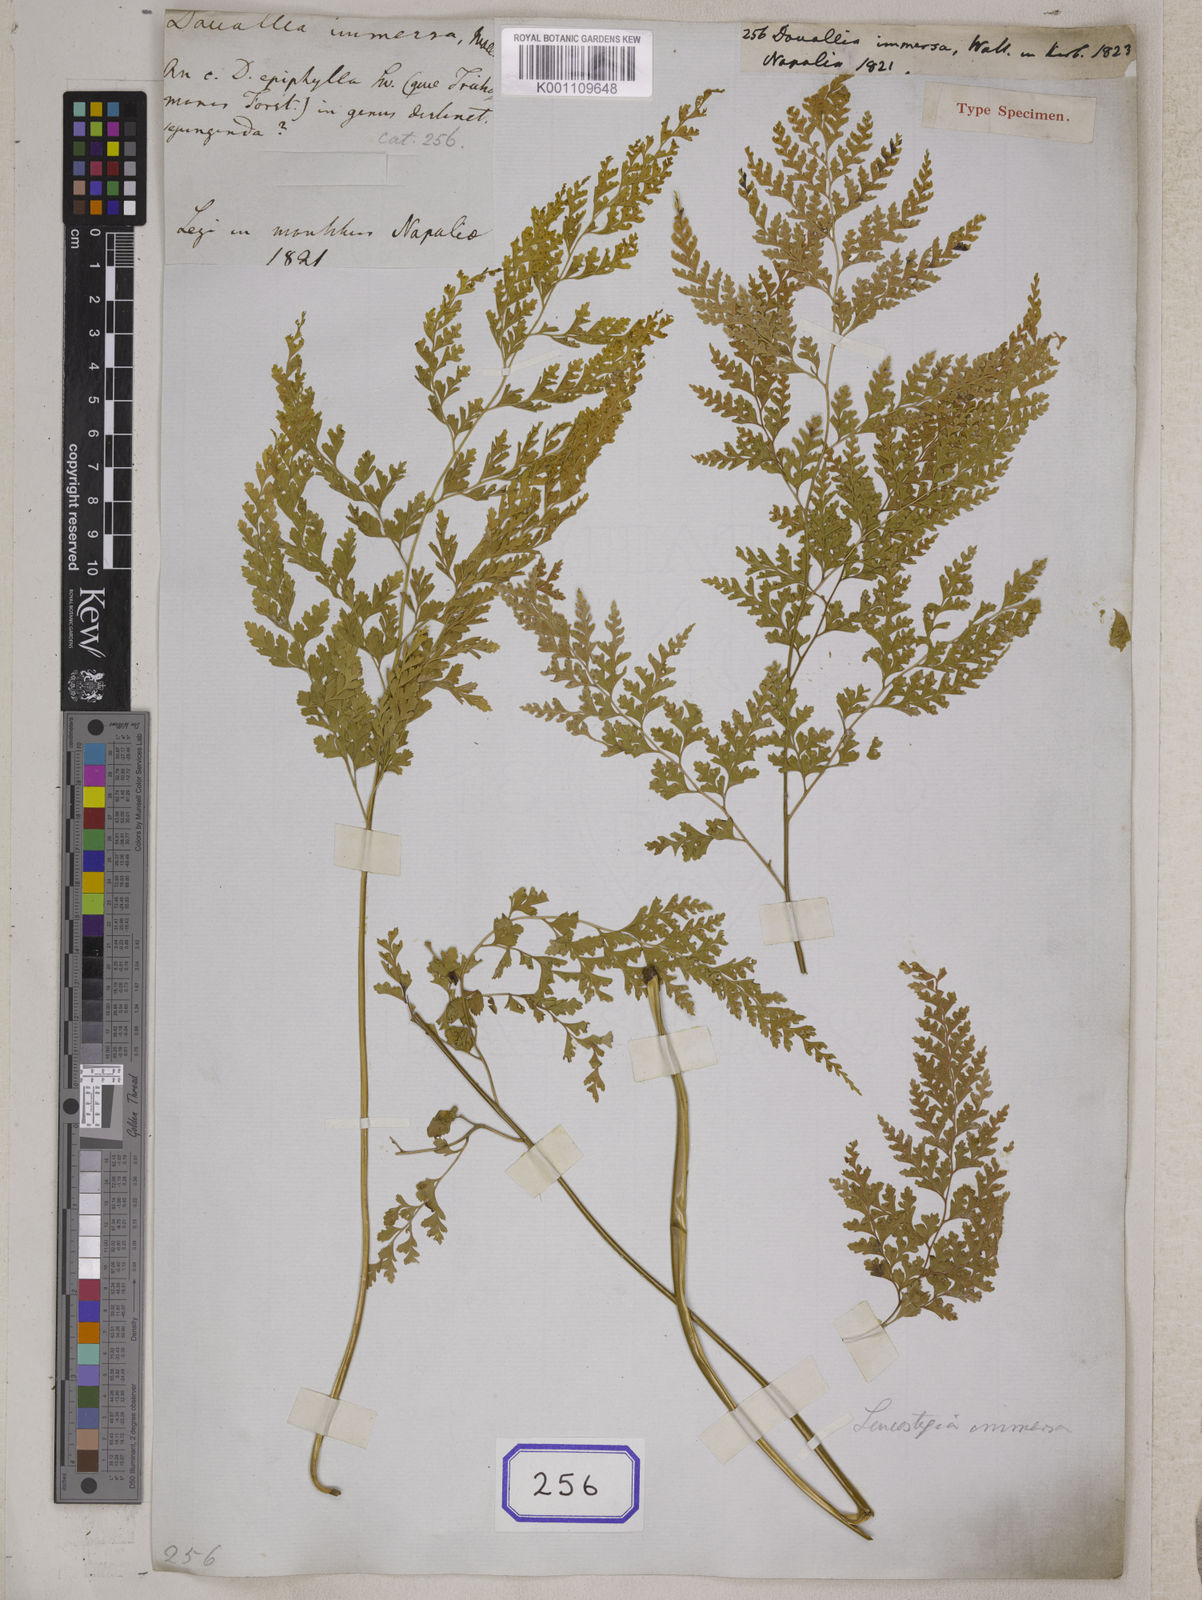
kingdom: Plantae
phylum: Tracheophyta
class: Polypodiopsida
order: Polypodiales
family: Hypodematiaceae
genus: Leucostegia
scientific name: Leucostegia immersa
